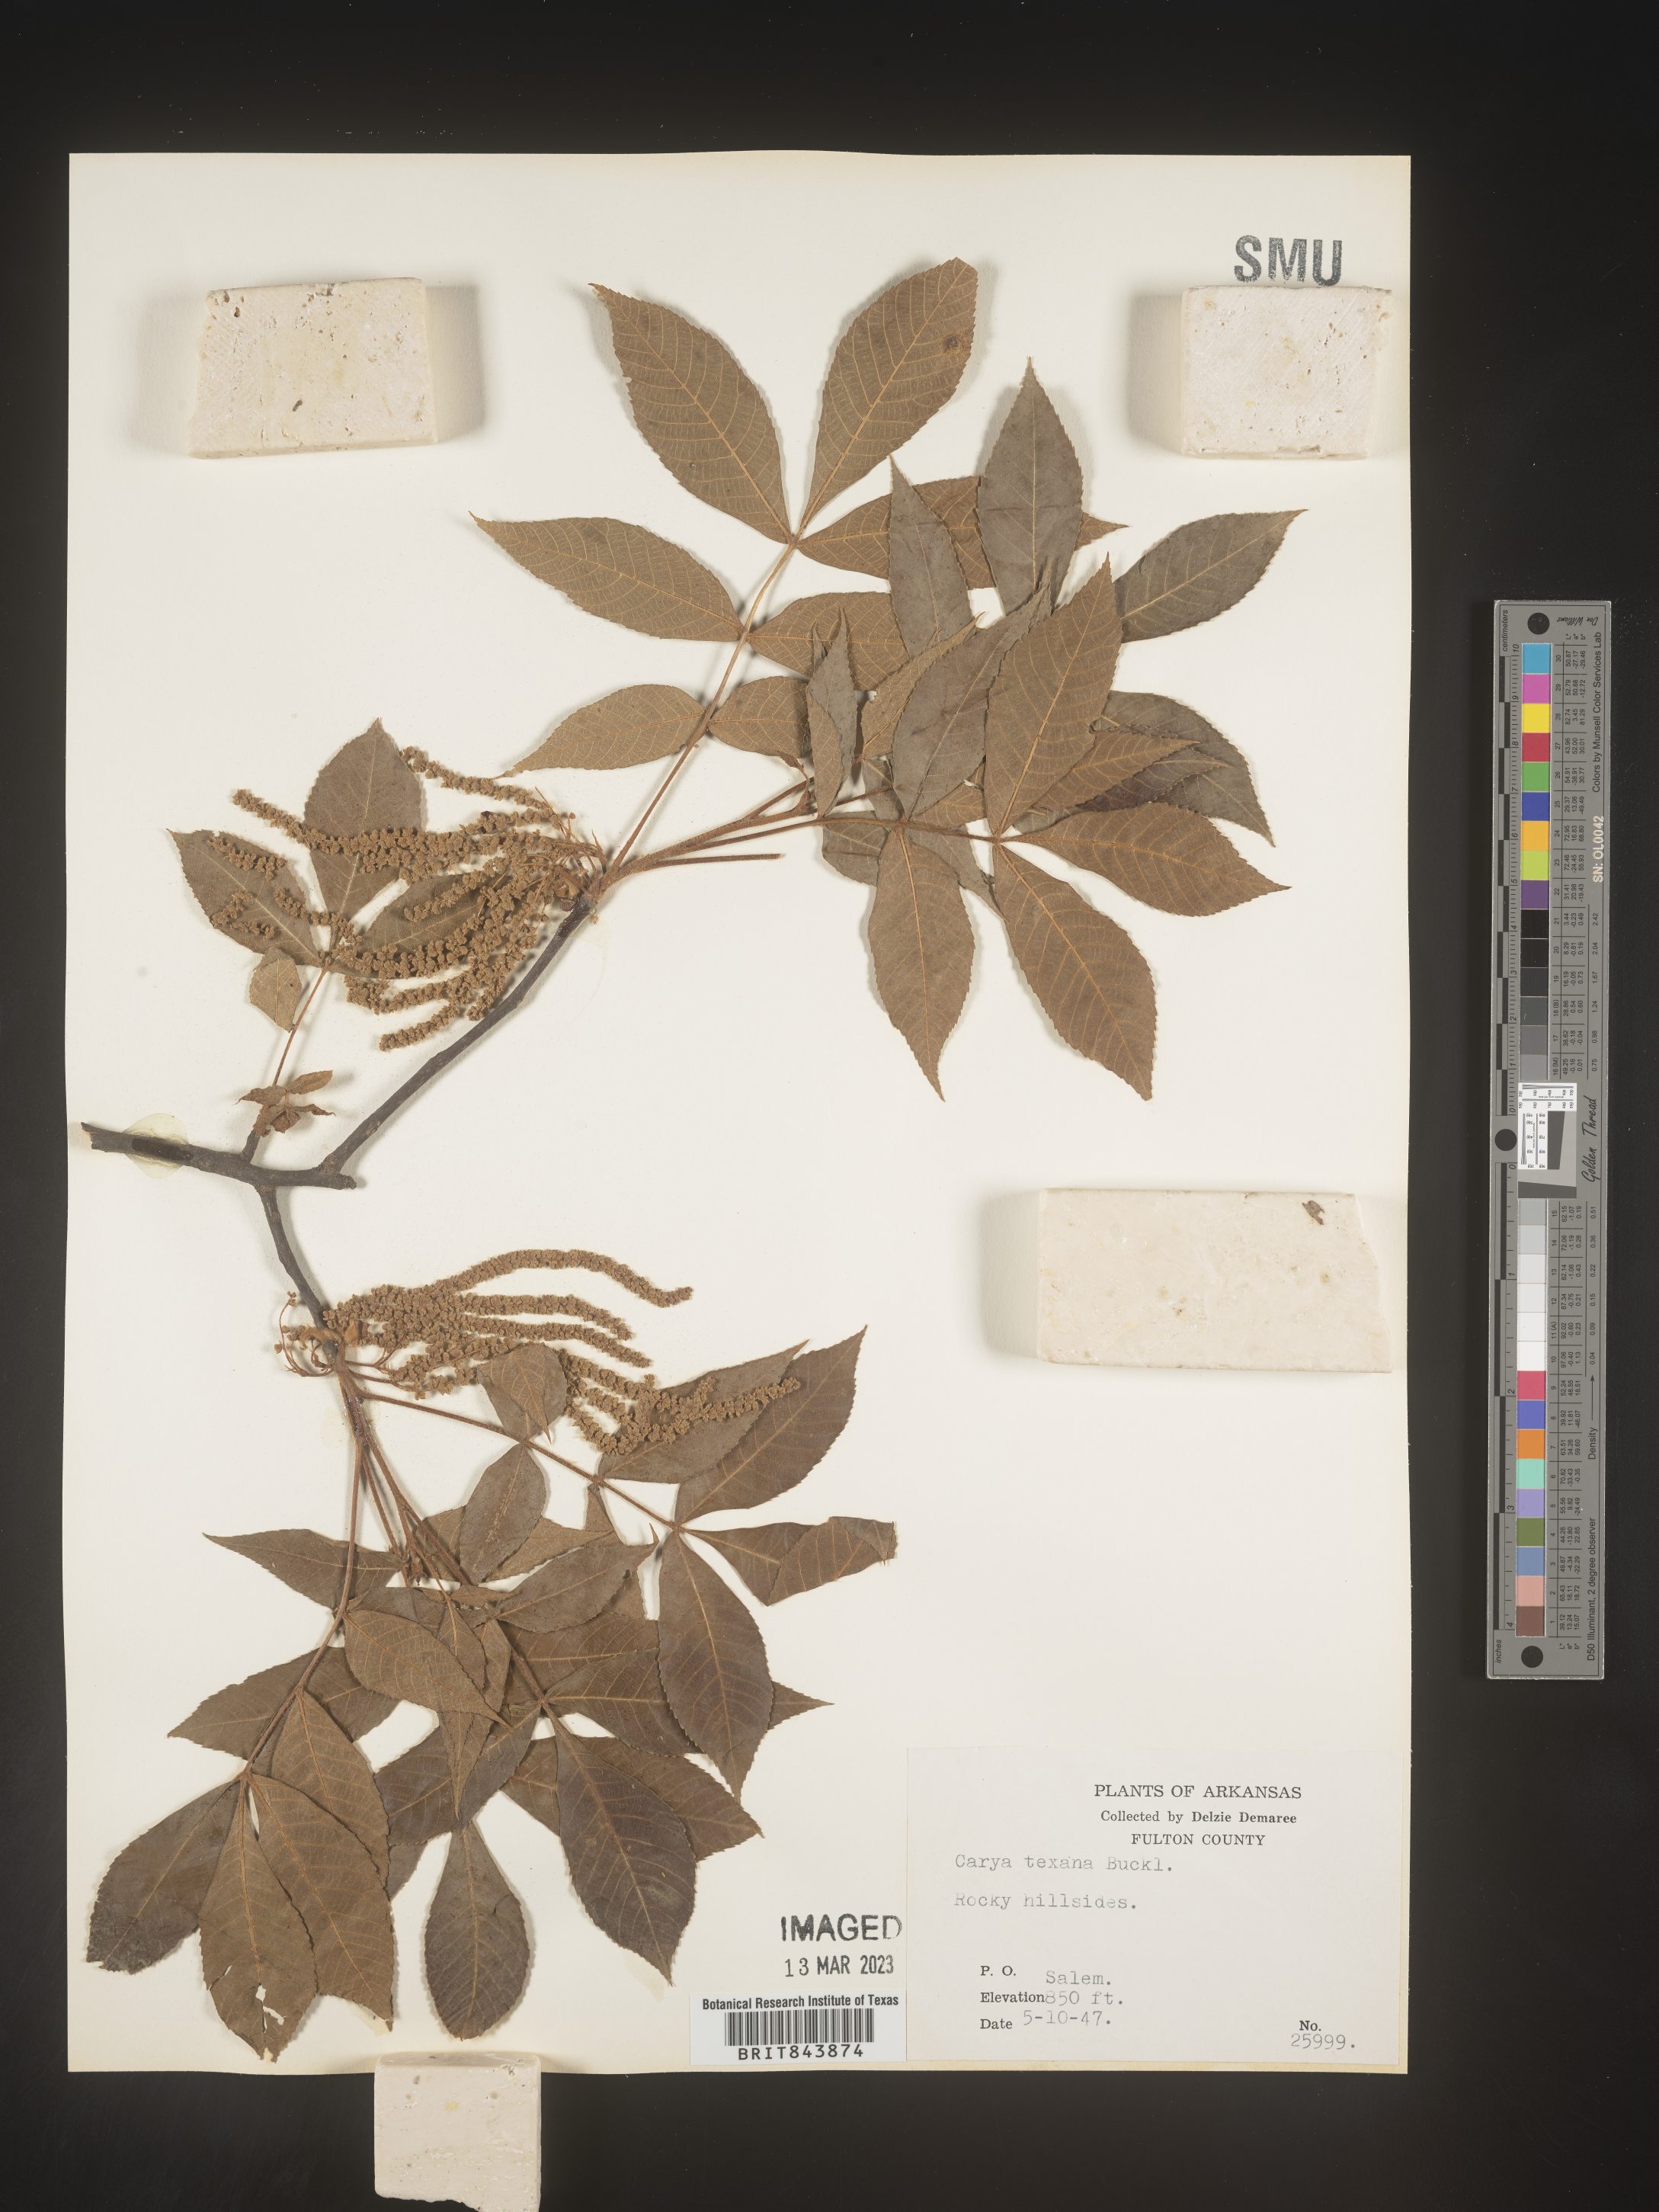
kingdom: Plantae
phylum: Tracheophyta
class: Magnoliopsida
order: Fagales
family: Juglandaceae
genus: Carya
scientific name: Carya texana
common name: Black hickory
